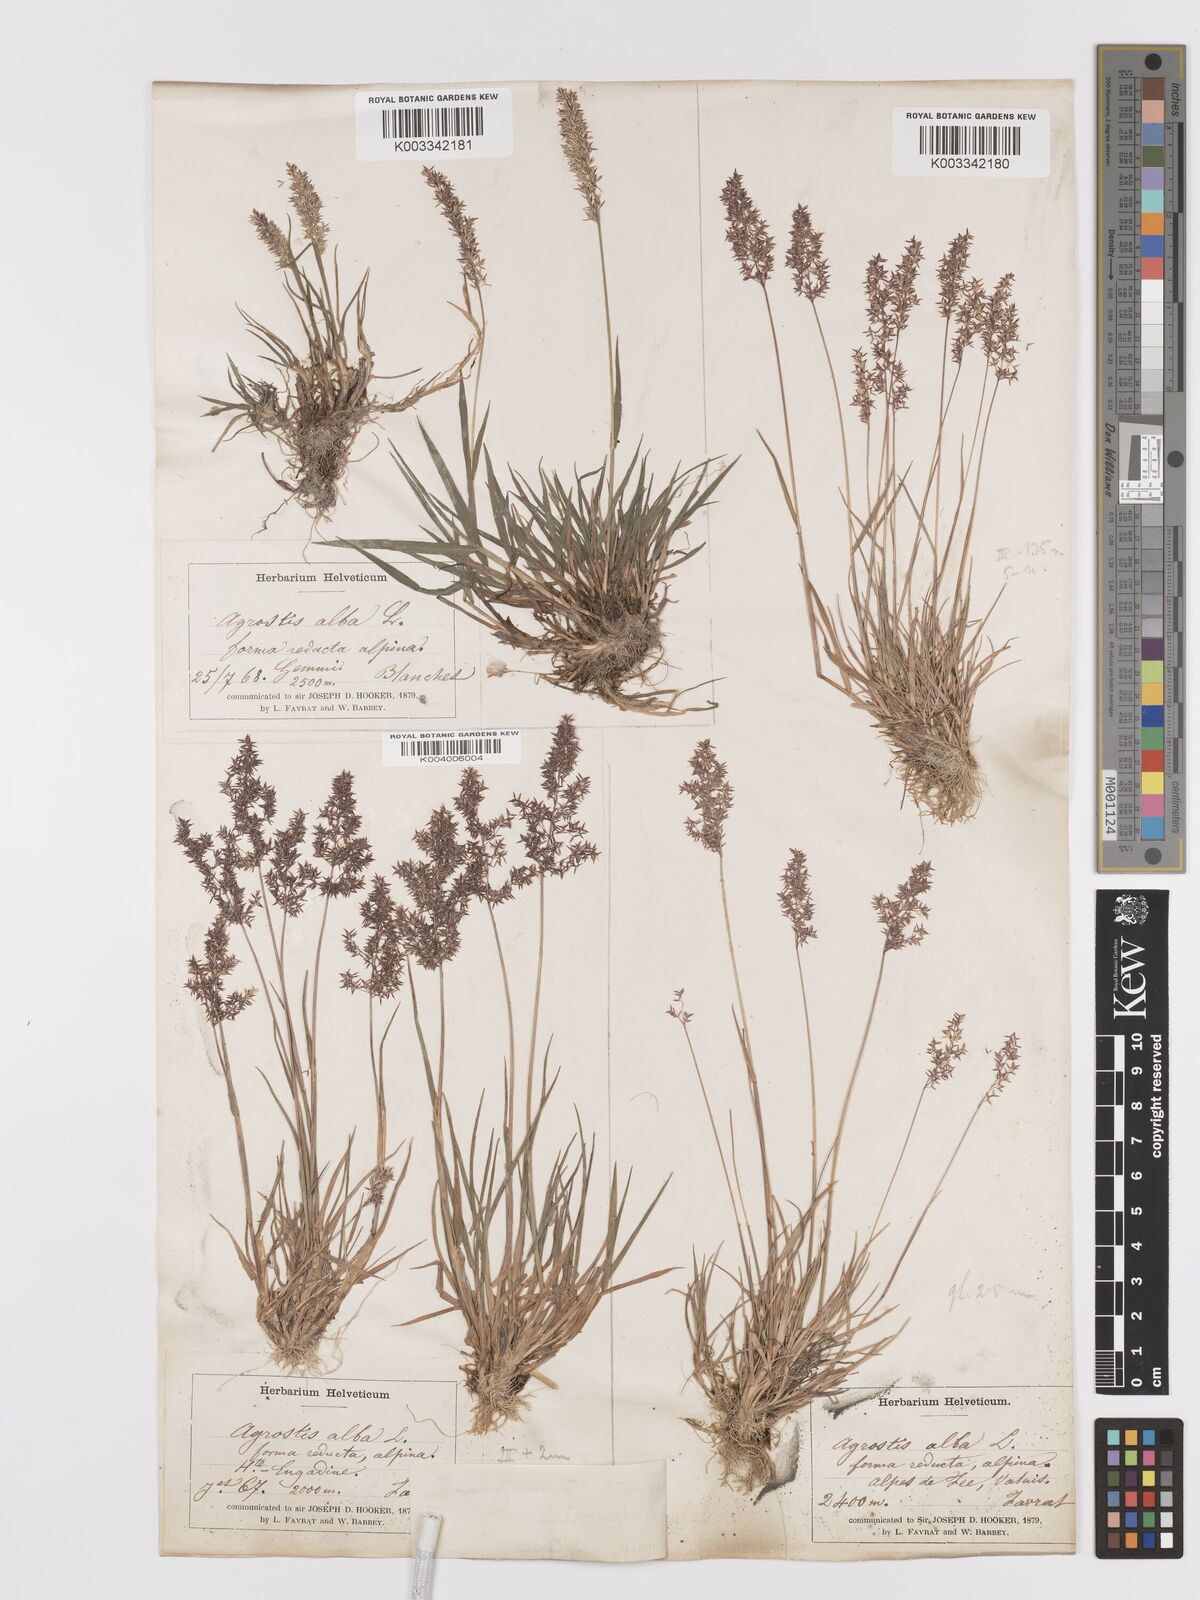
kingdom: Plantae
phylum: Tracheophyta
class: Liliopsida
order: Poales
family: Poaceae
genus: Agrostis
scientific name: Agrostis stolonifera
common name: Creeping bentgrass
